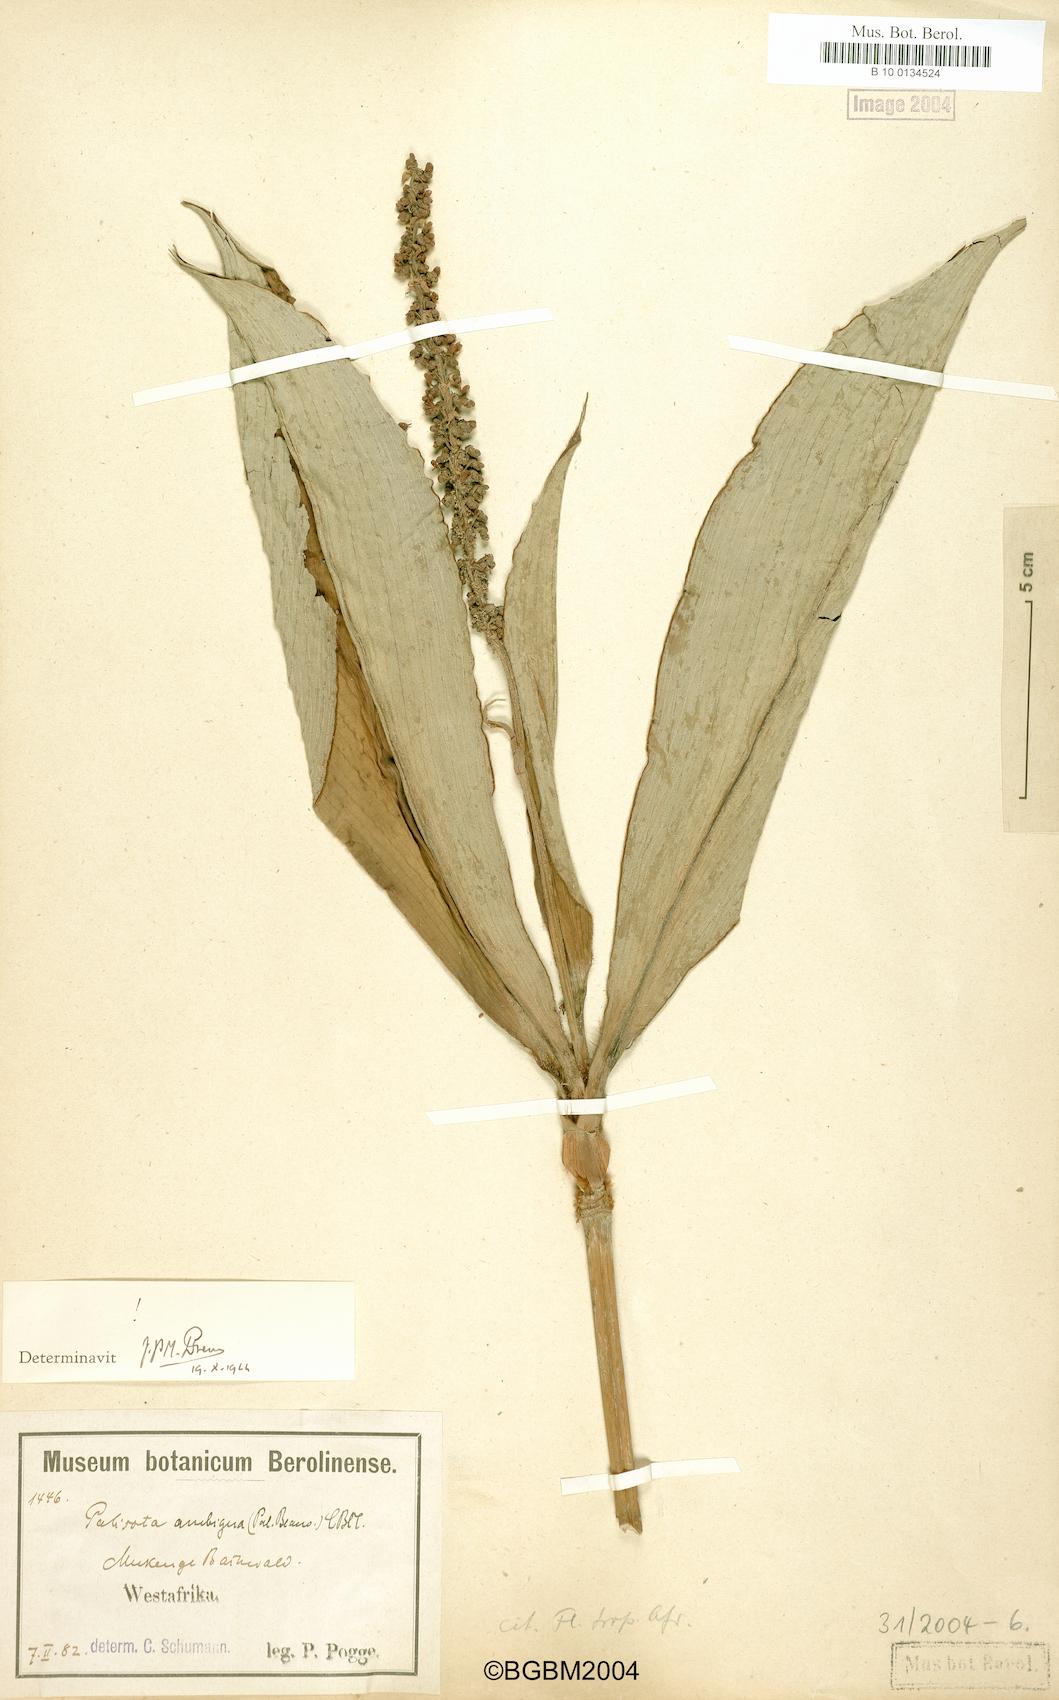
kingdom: Plantae
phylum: Tracheophyta
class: Liliopsida
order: Commelinales
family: Commelinaceae
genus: Palisota
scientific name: Palisota ambigua
